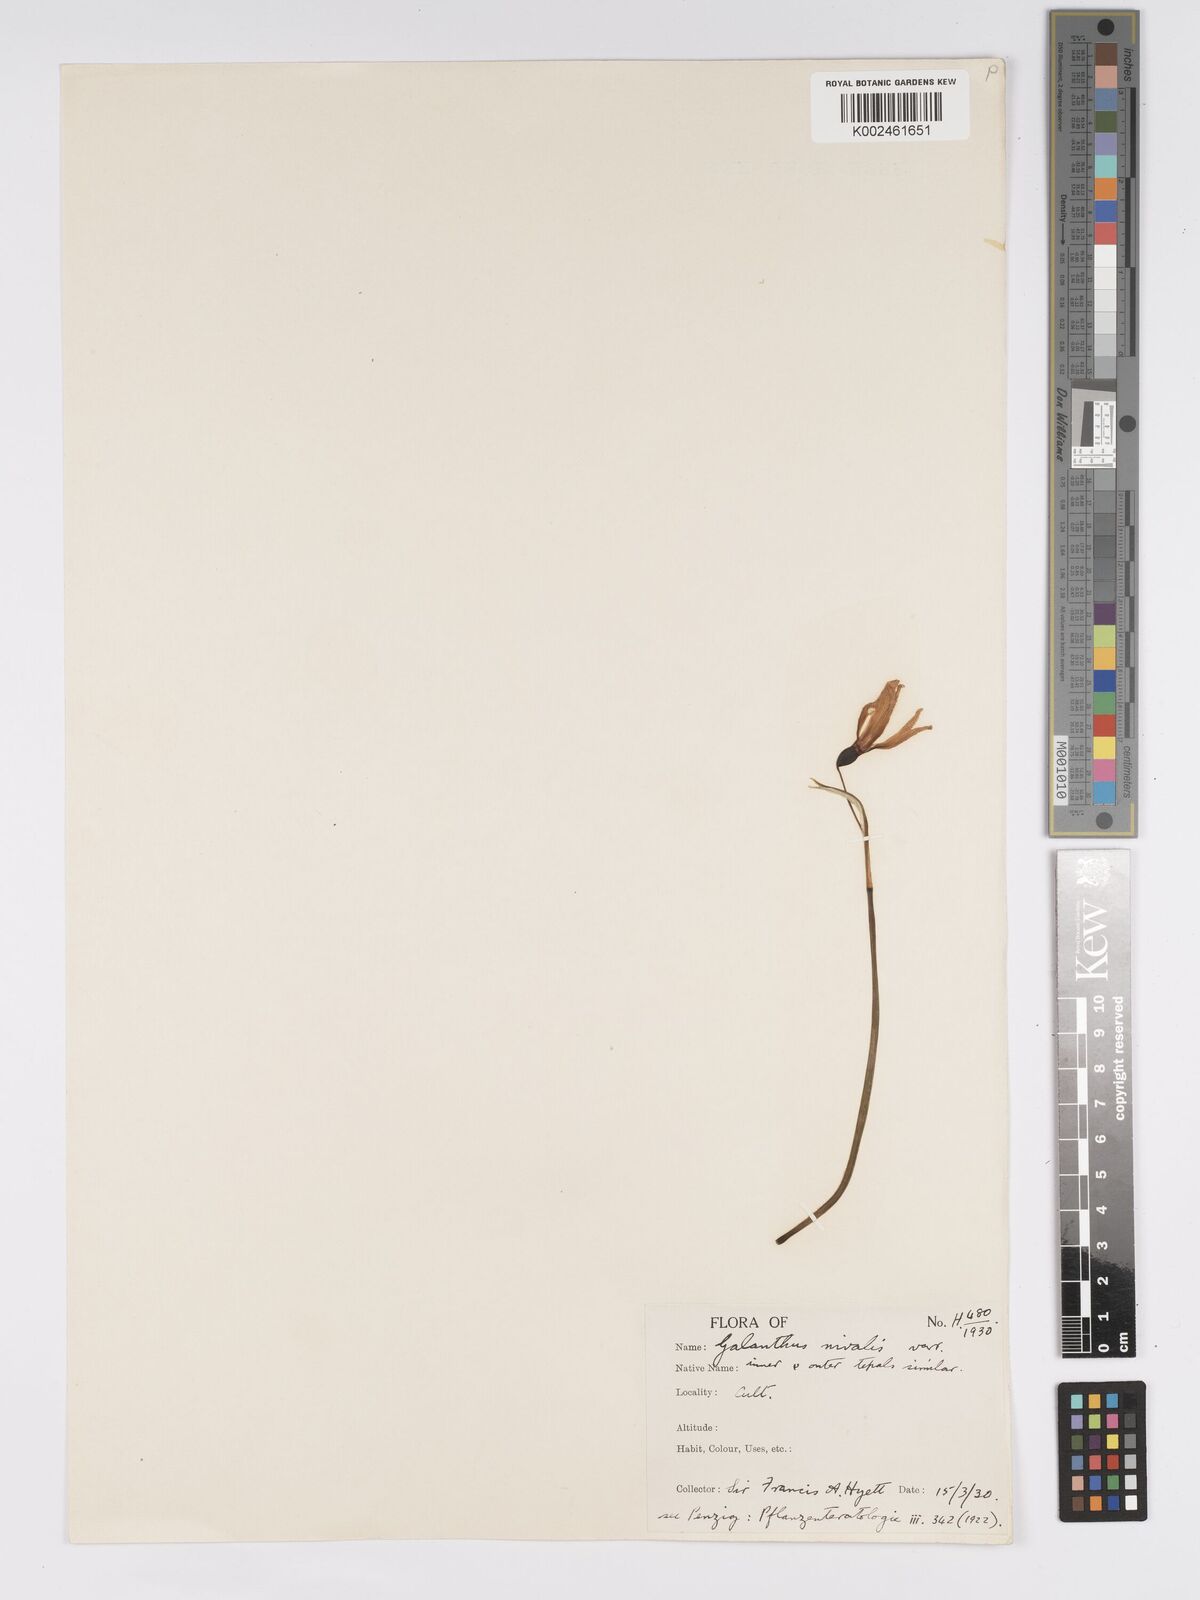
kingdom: Plantae
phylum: Tracheophyta
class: Liliopsida
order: Asparagales
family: Amaryllidaceae
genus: Galanthus
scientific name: Galanthus nivalis
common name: Snowdrop
